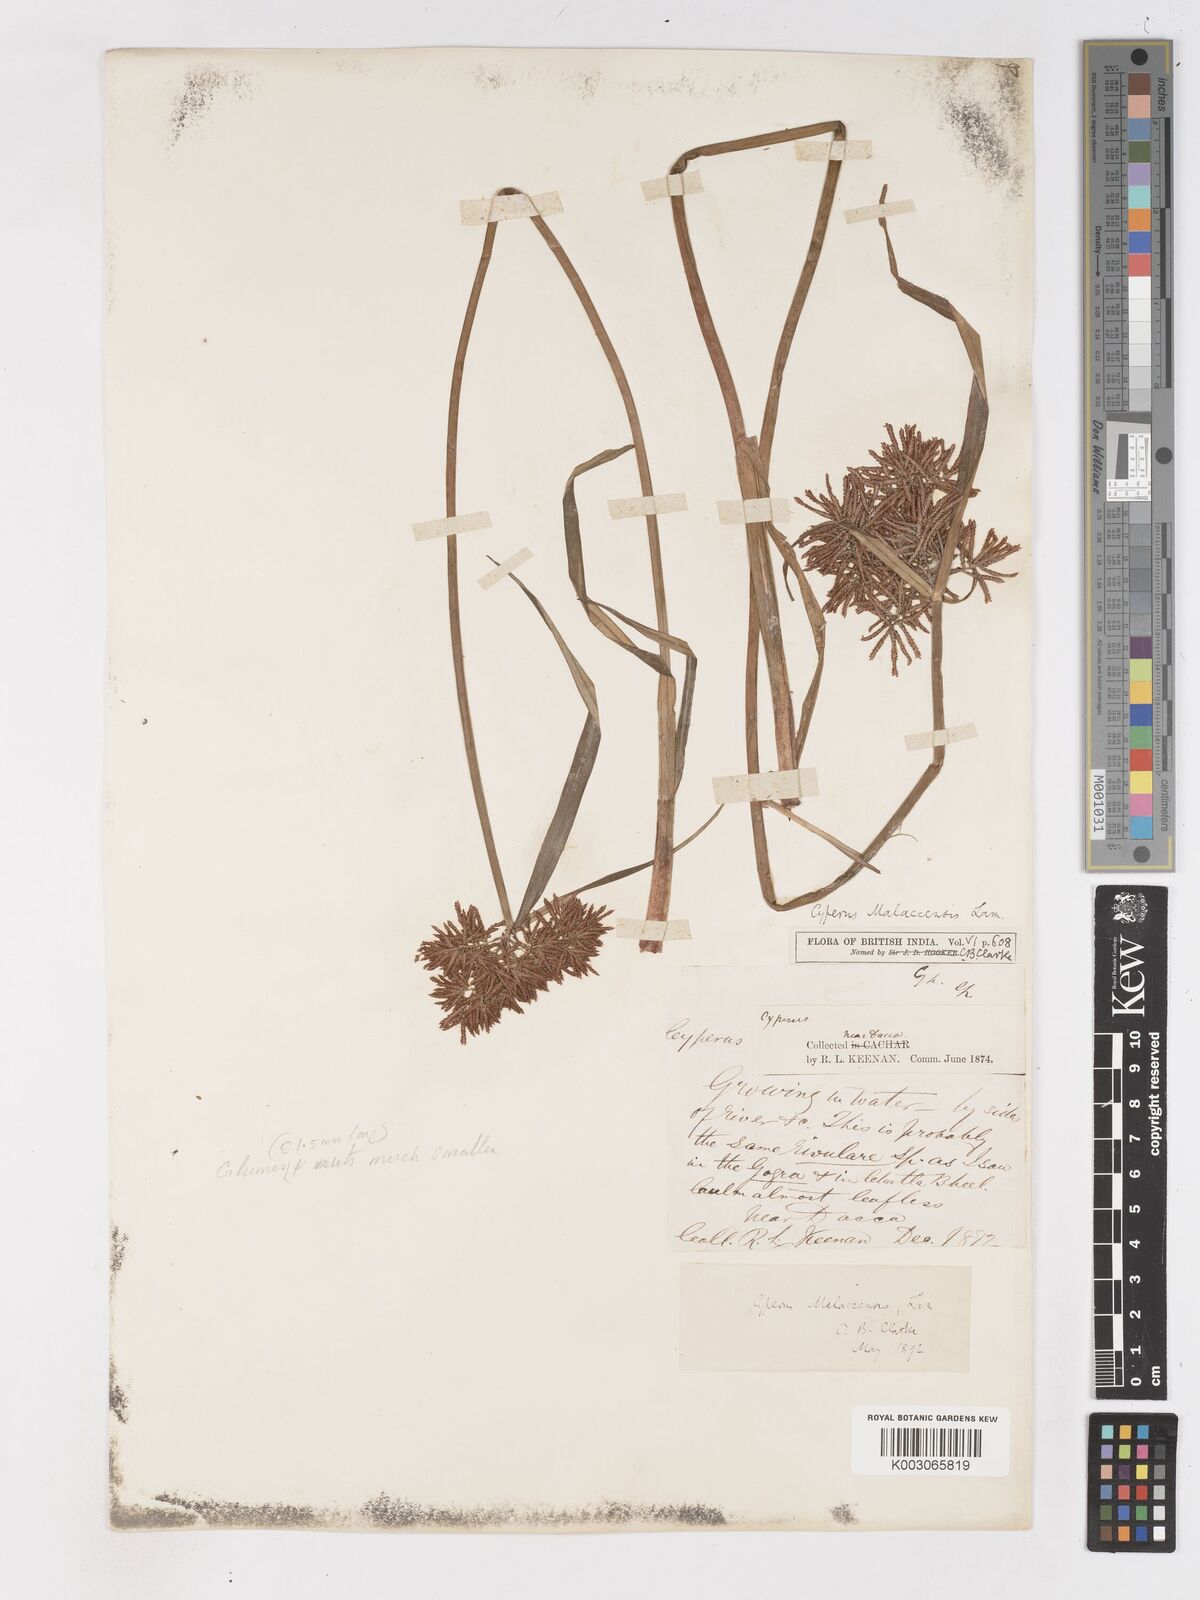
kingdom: Plantae
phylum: Tracheophyta
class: Liliopsida
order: Poales
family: Cyperaceae
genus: Cyperus
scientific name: Cyperus malaccensis
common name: Shichito matgrass
